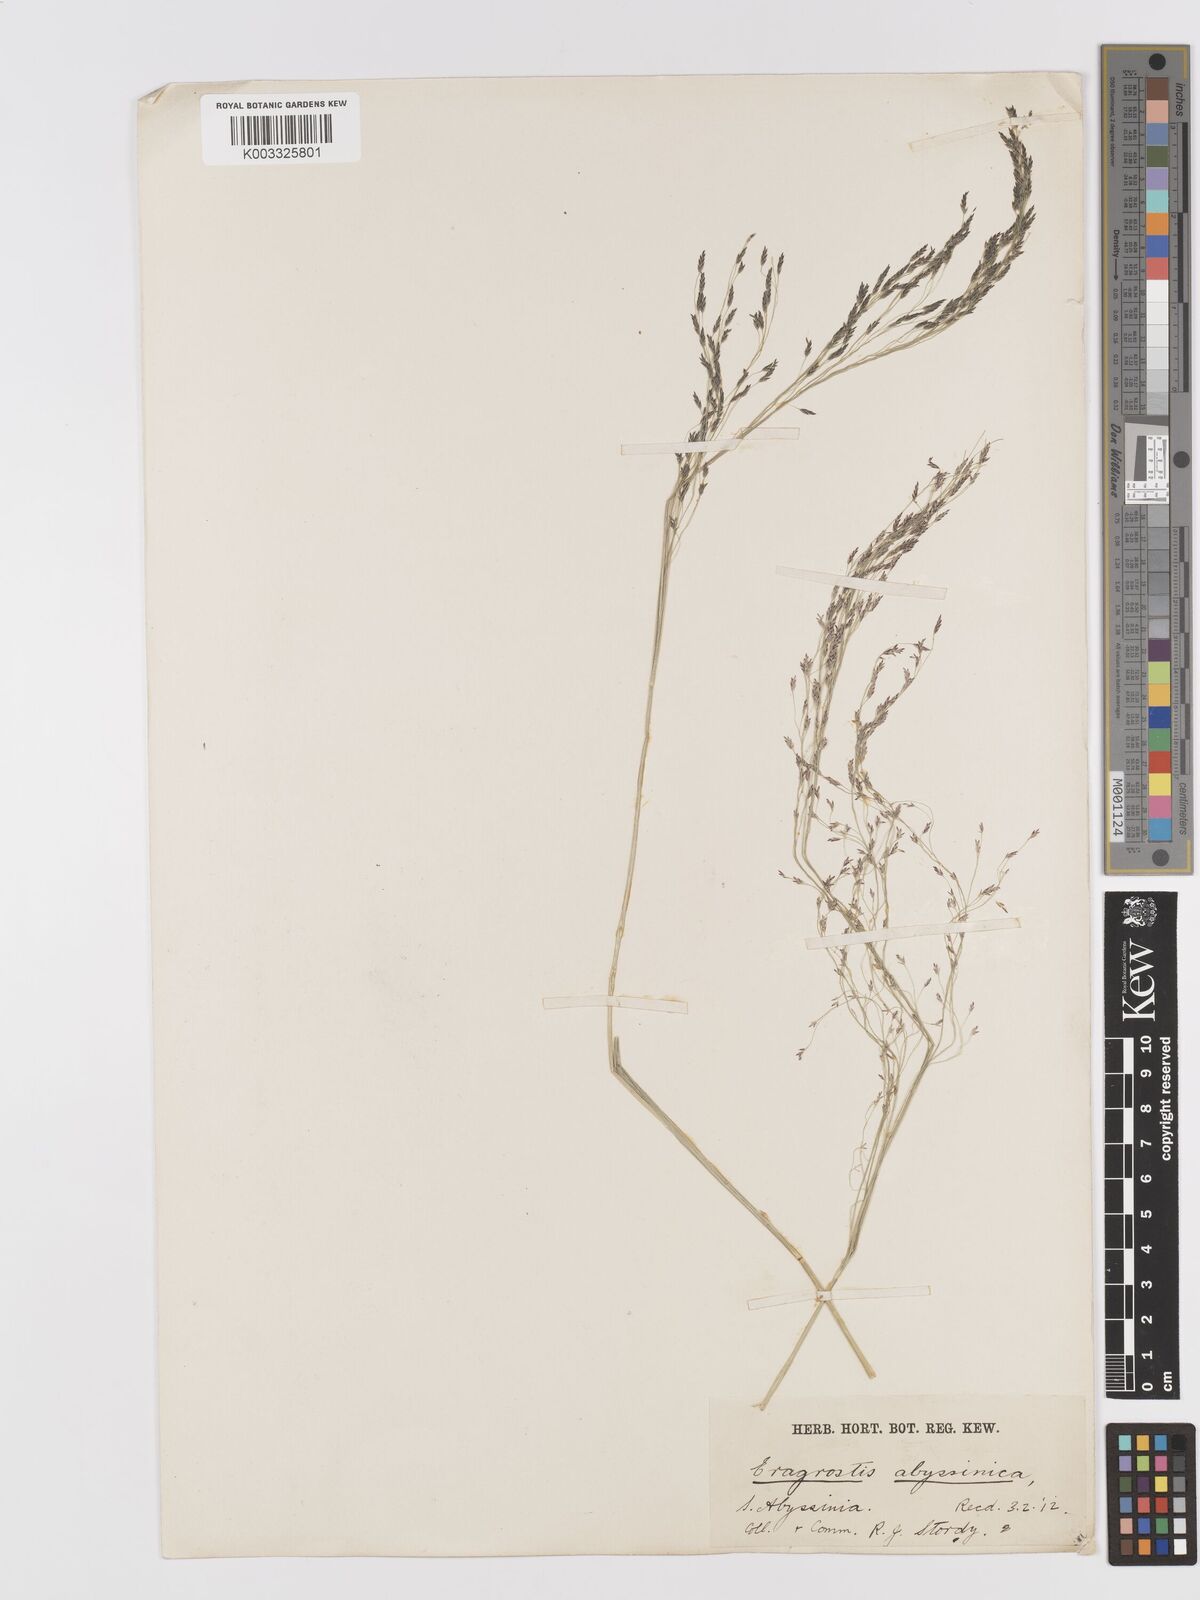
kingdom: Plantae
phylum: Tracheophyta
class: Liliopsida
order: Poales
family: Poaceae
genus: Eragrostis
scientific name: Eragrostis tef
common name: Teff
